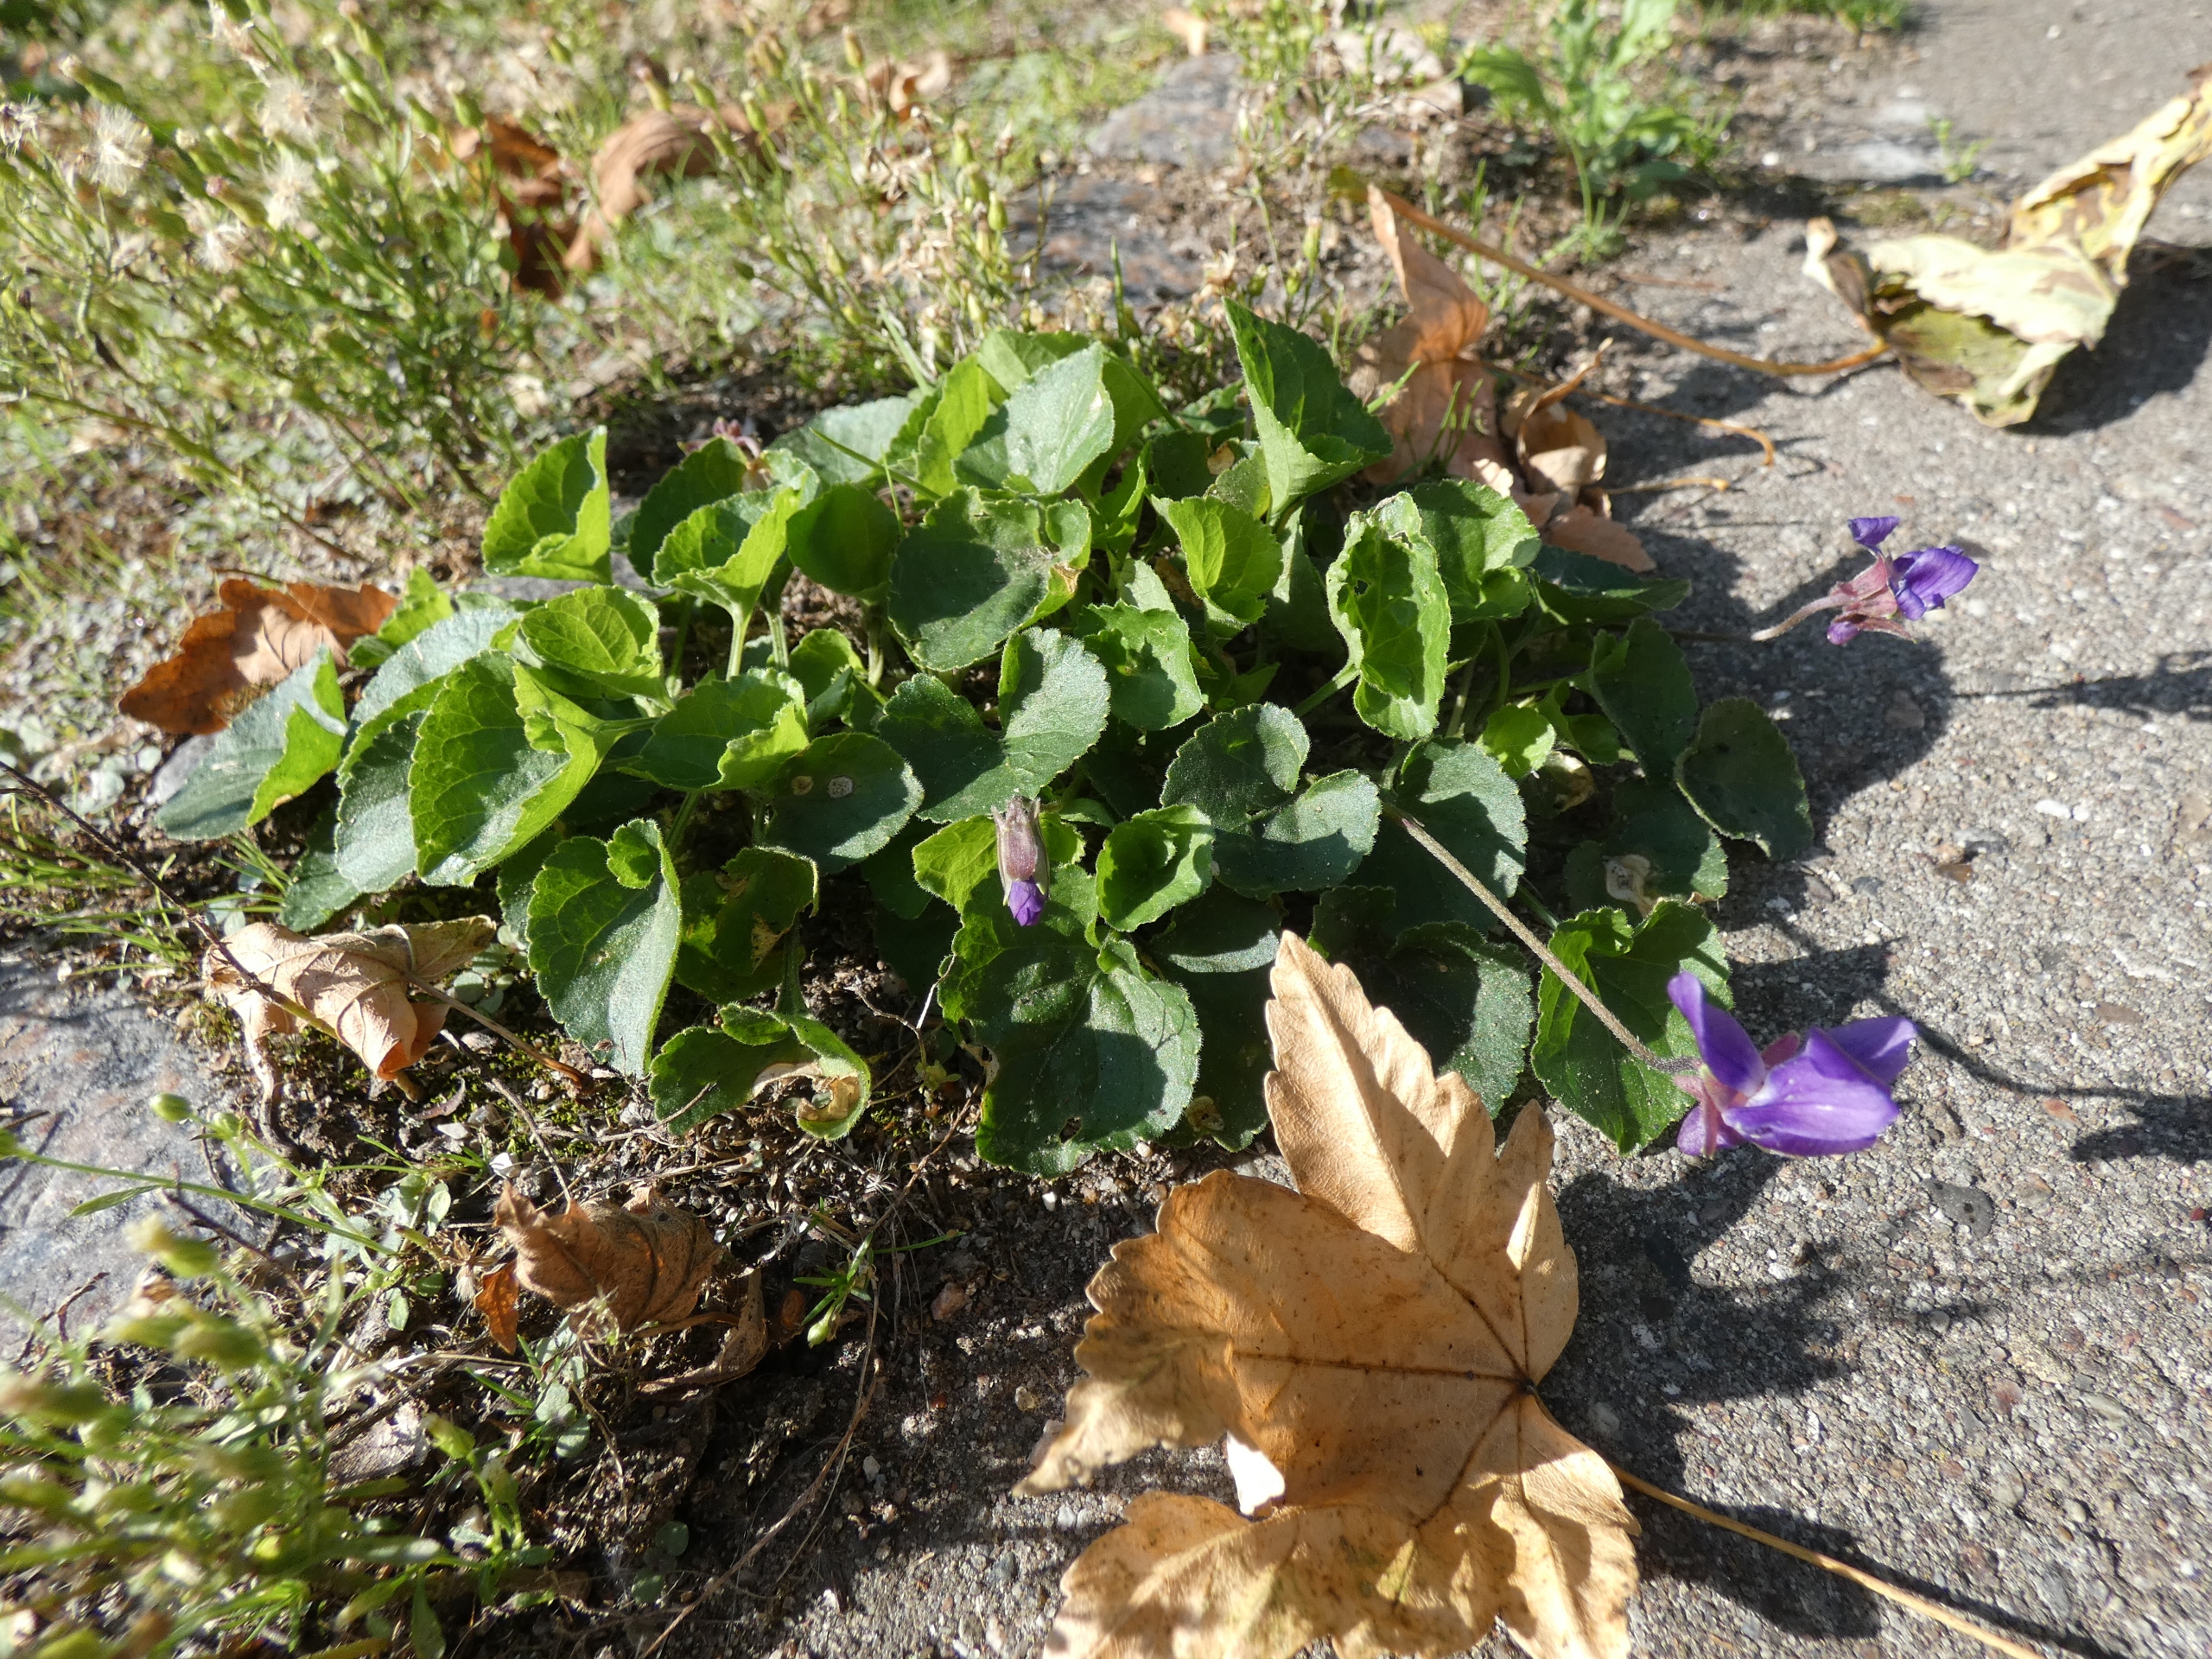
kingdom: Plantae
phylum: Tracheophyta
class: Magnoliopsida
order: Malpighiales
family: Violaceae
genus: Viola
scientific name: Viola odorata
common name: Marts-viol
